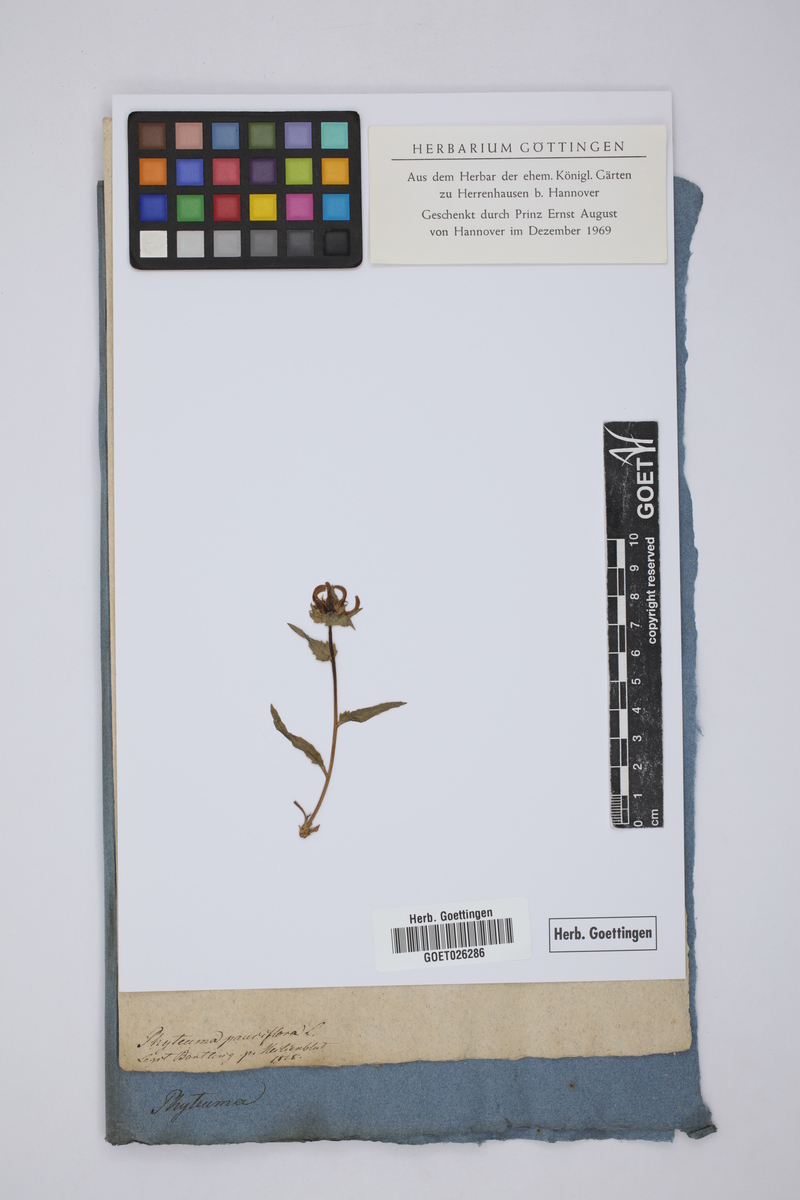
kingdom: Plantae
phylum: Tracheophyta
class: Magnoliopsida
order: Asterales
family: Campanulaceae
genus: Phyteuma
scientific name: Phyteuma globulariifolium
